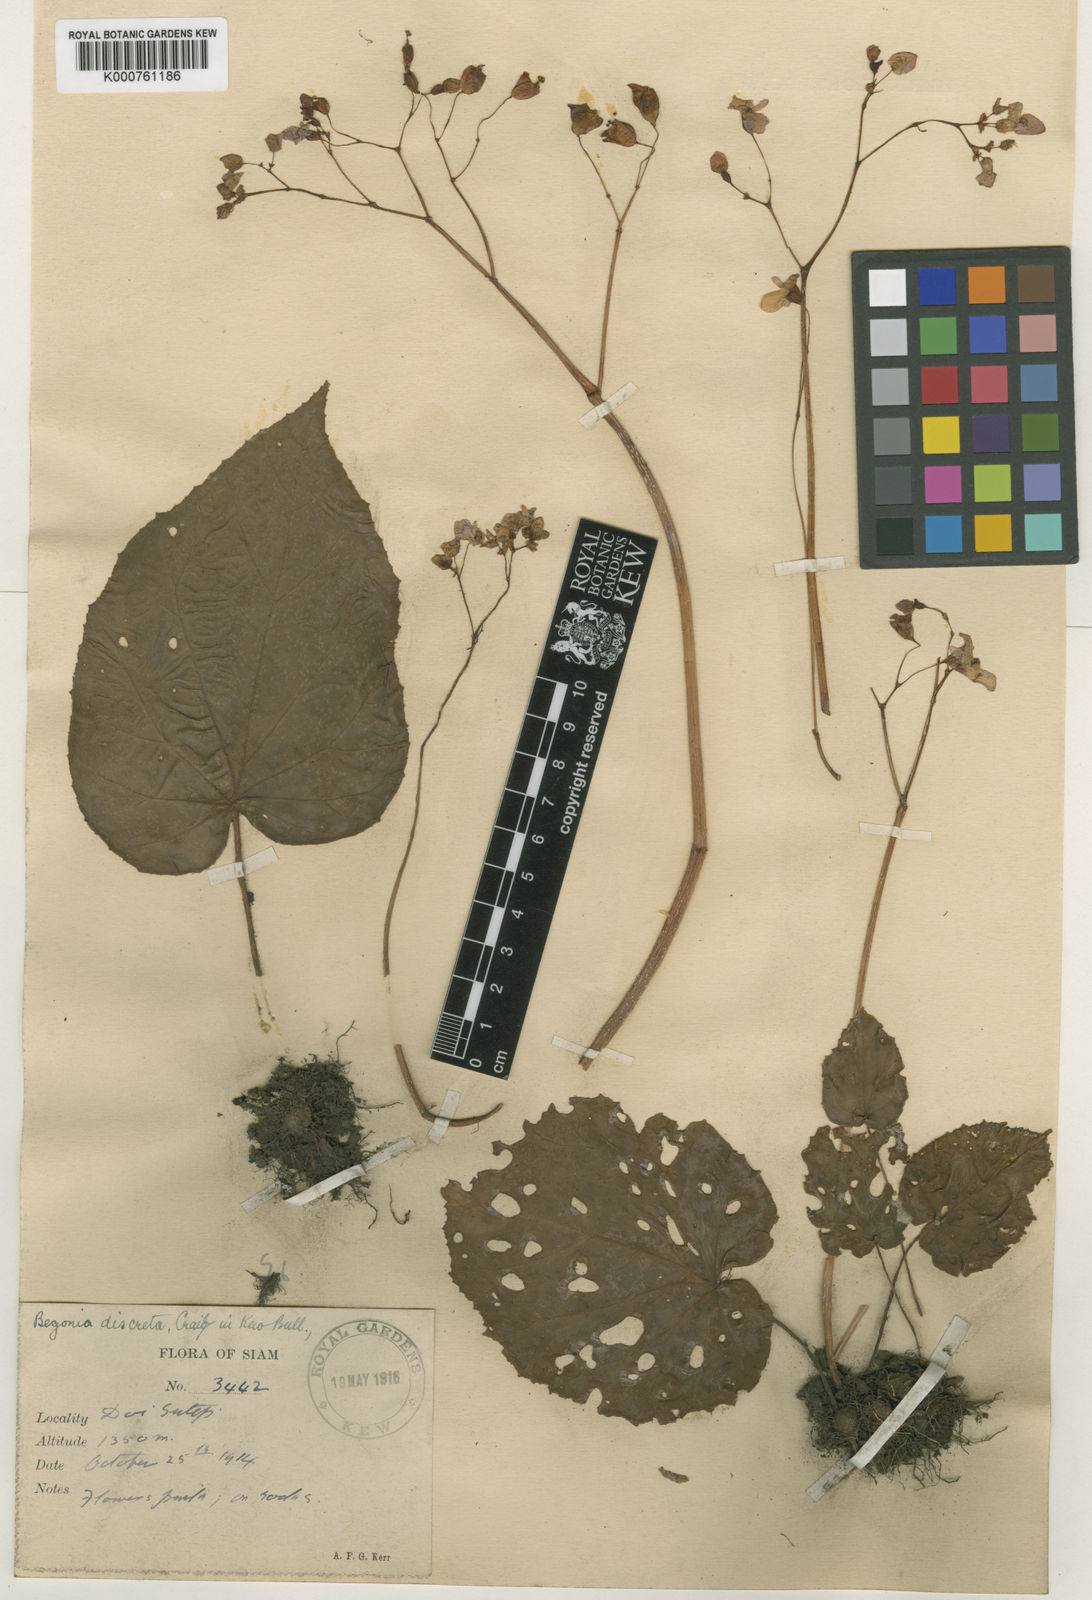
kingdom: Plantae
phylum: Tracheophyta
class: Magnoliopsida
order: Cucurbitales
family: Begoniaceae
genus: Begonia
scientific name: Begonia discreta
